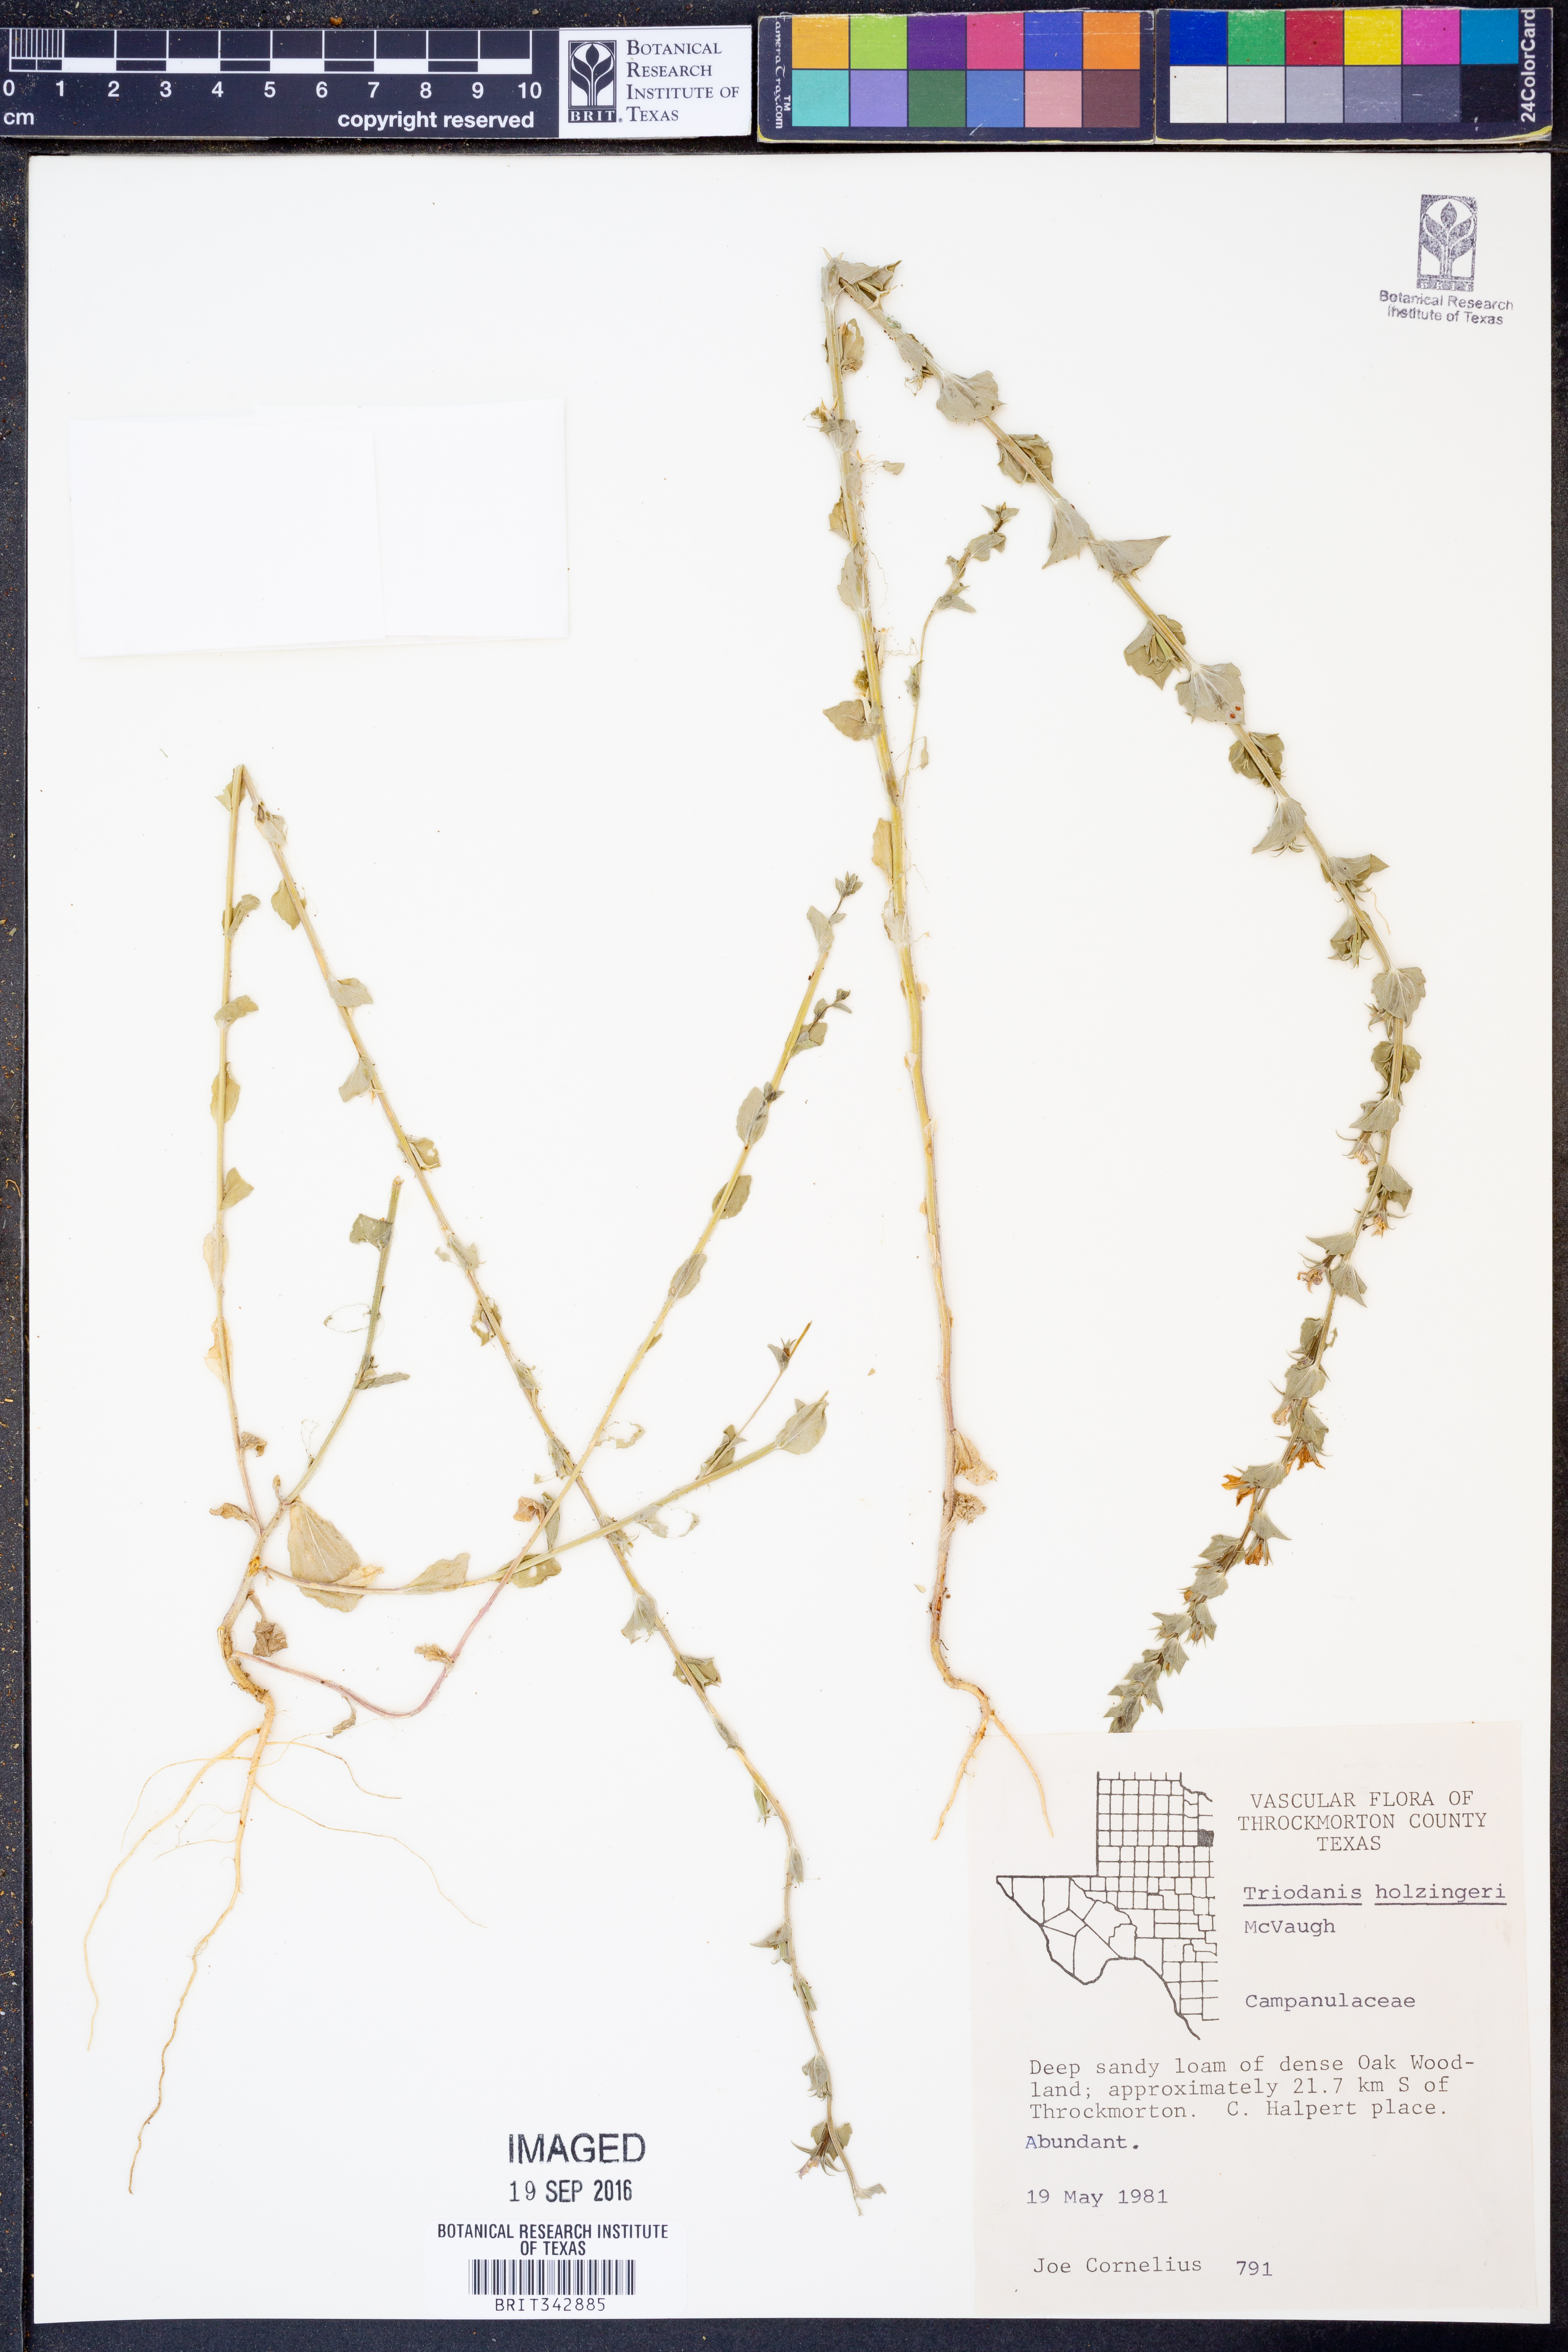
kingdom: Plantae
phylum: Tracheophyta
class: Magnoliopsida
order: Asterales
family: Campanulaceae
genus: Triodanis
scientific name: Triodanis holzingeri
